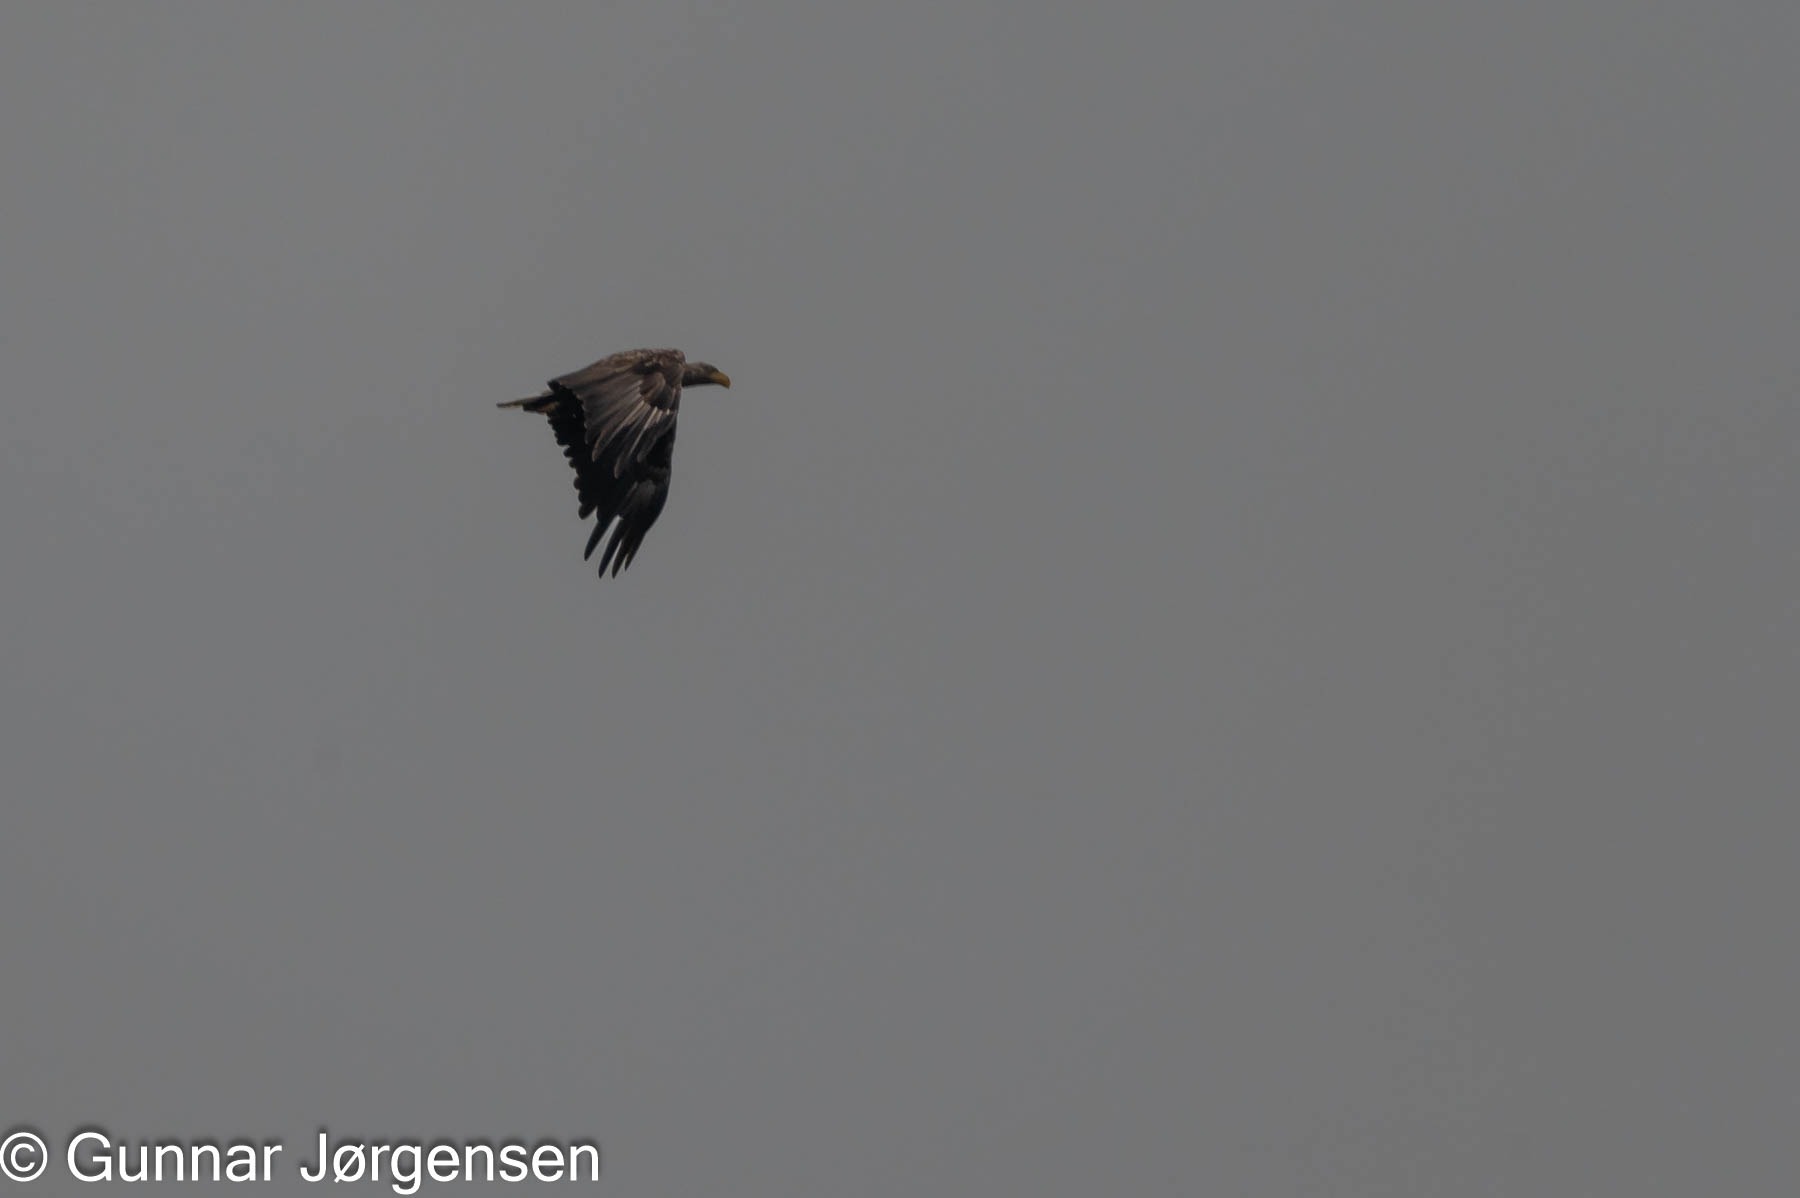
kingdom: Animalia
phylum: Chordata
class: Aves
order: Accipitriformes
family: Accipitridae
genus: Haliaeetus
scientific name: Haliaeetus albicilla
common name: Havørn
